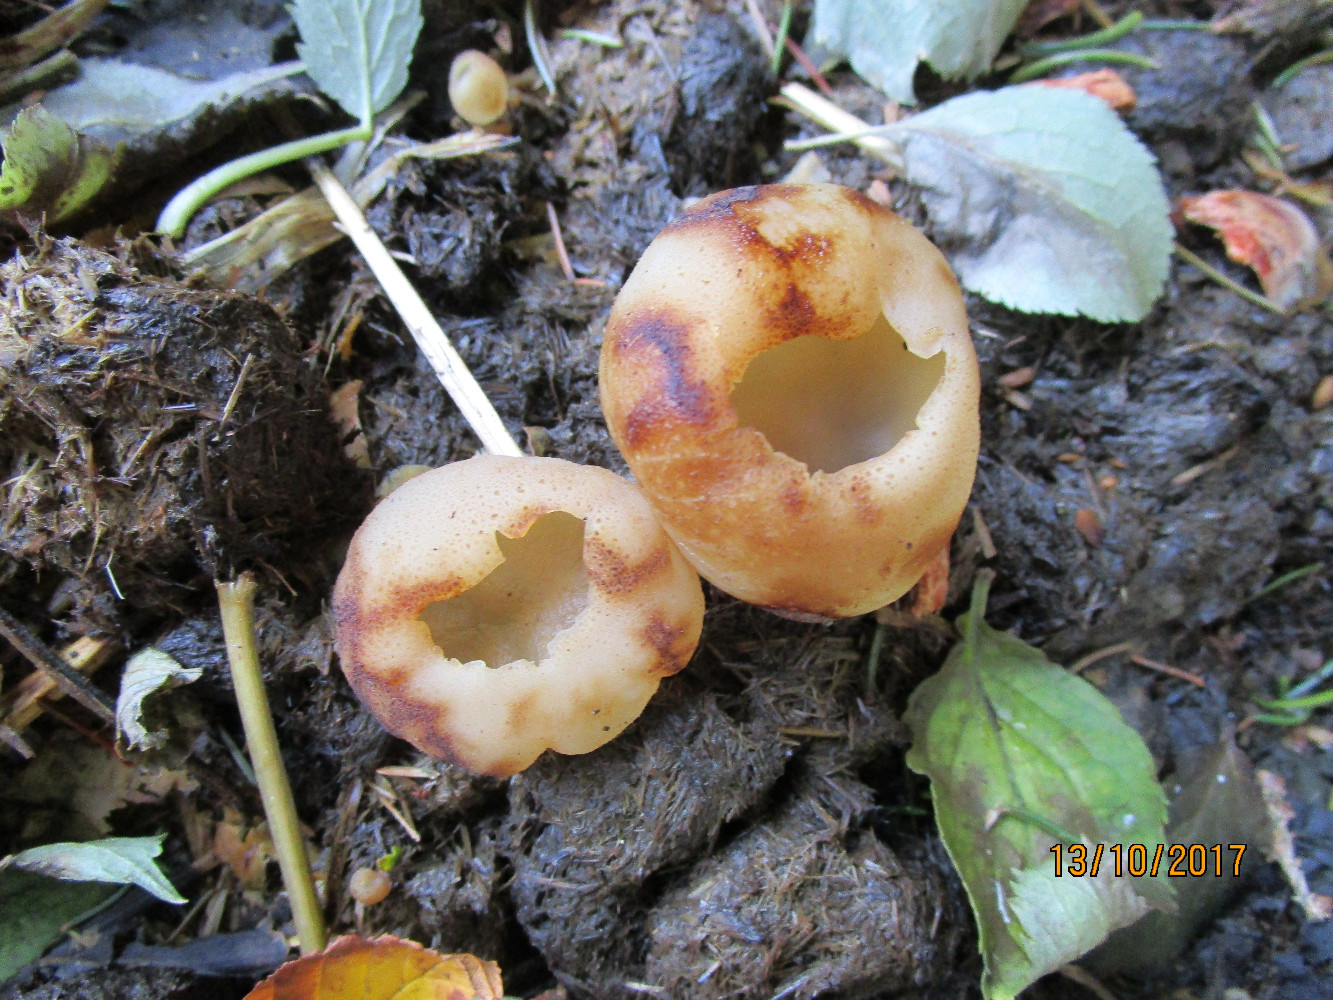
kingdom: Fungi
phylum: Ascomycota
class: Pezizomycetes
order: Pezizales
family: Pezizaceae
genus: Peziza
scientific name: Peziza vesiculosa
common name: blære-bægersvamp
